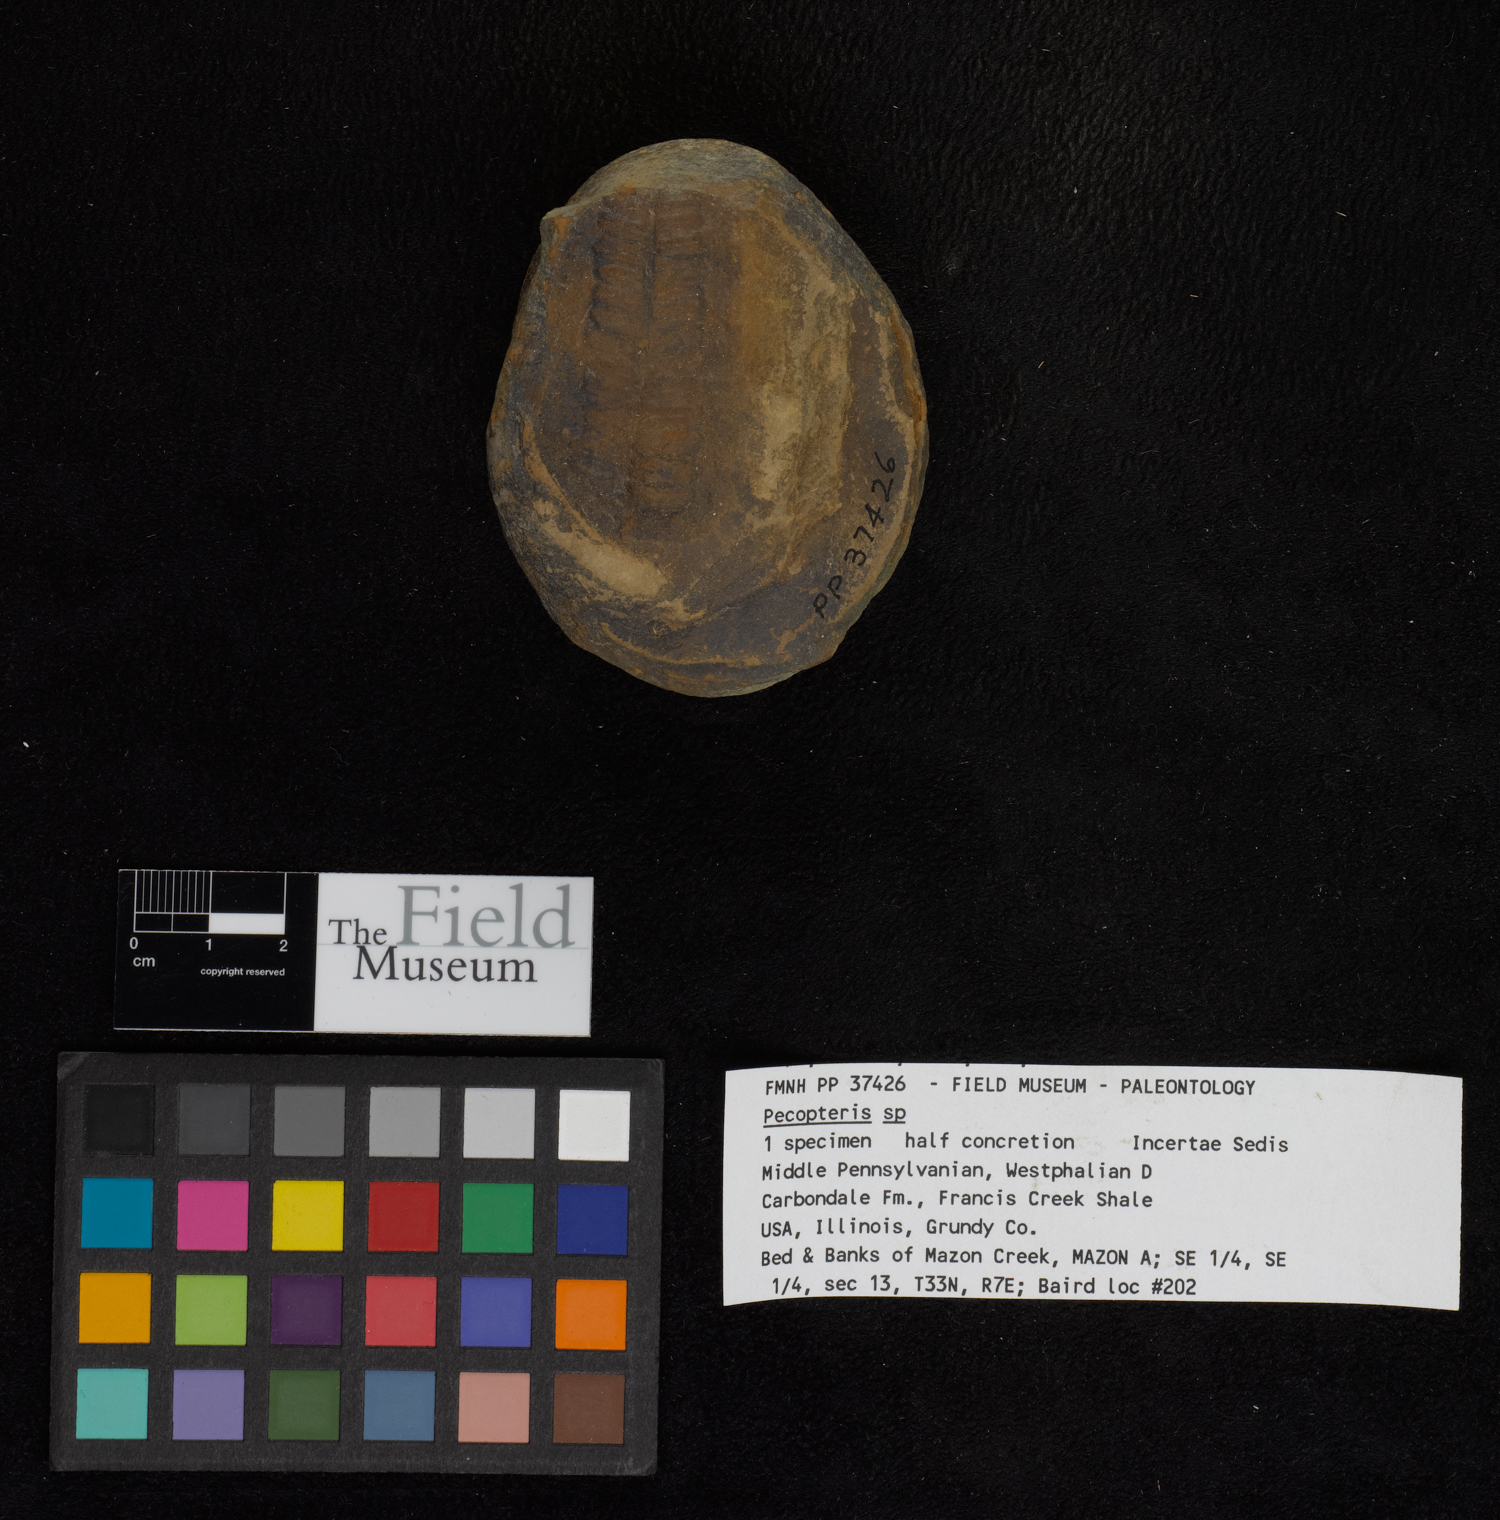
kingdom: Plantae
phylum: Tracheophyta
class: Polypodiopsida
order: Marattiales
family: Asterothecaceae
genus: Pecopteris
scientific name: Pecopteris
